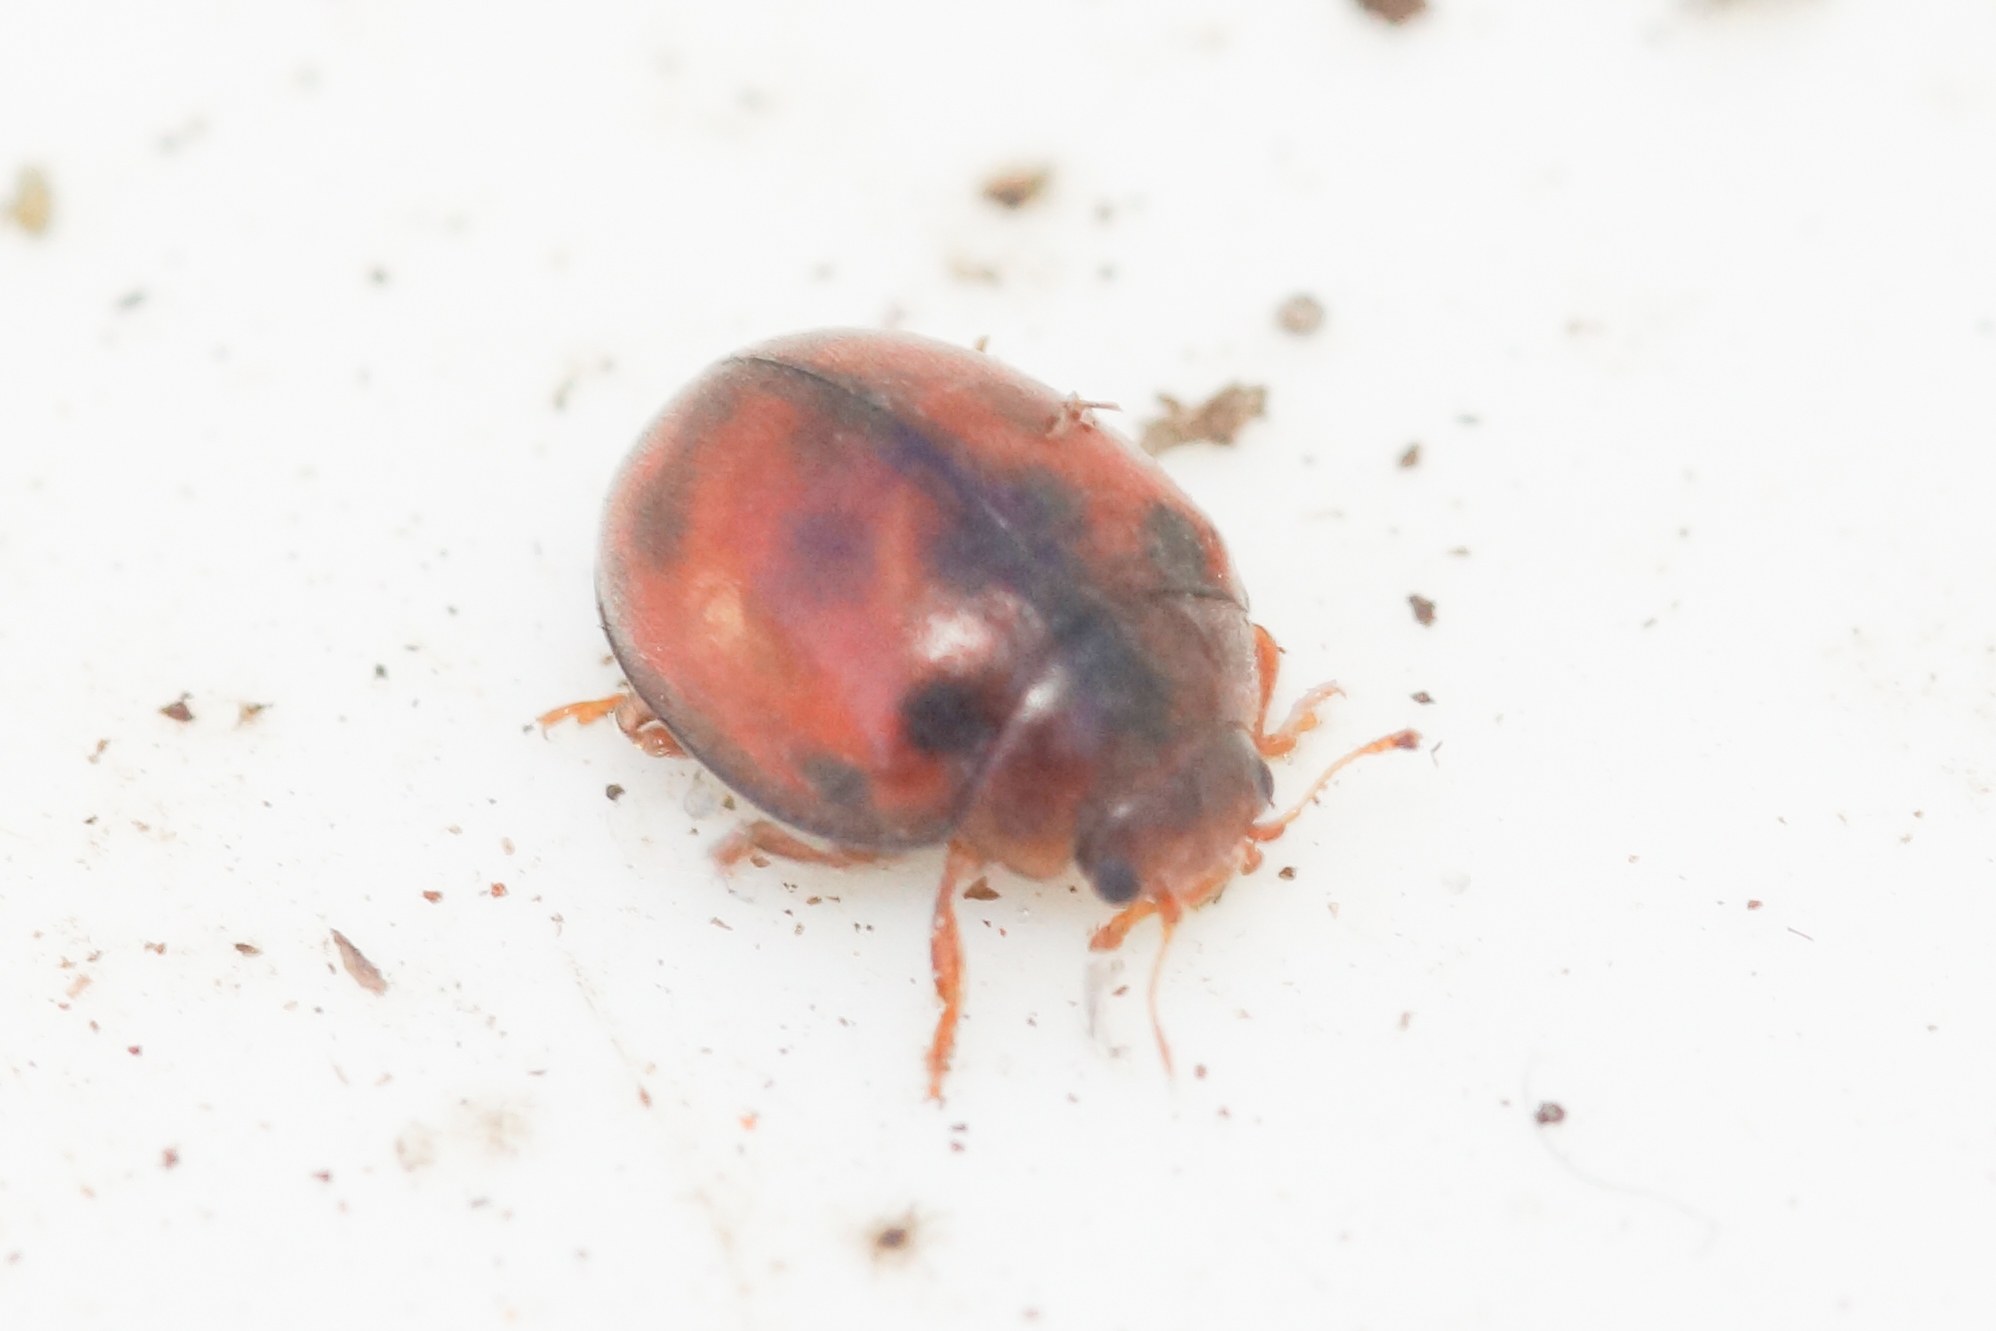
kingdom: Animalia
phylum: Arthropoda
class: Insecta
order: Coleoptera
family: Coccinellidae
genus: Subcoccinella
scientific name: Subcoccinella vigintiquatuorpunctata
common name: Fireogtyveplettet mariehøne
